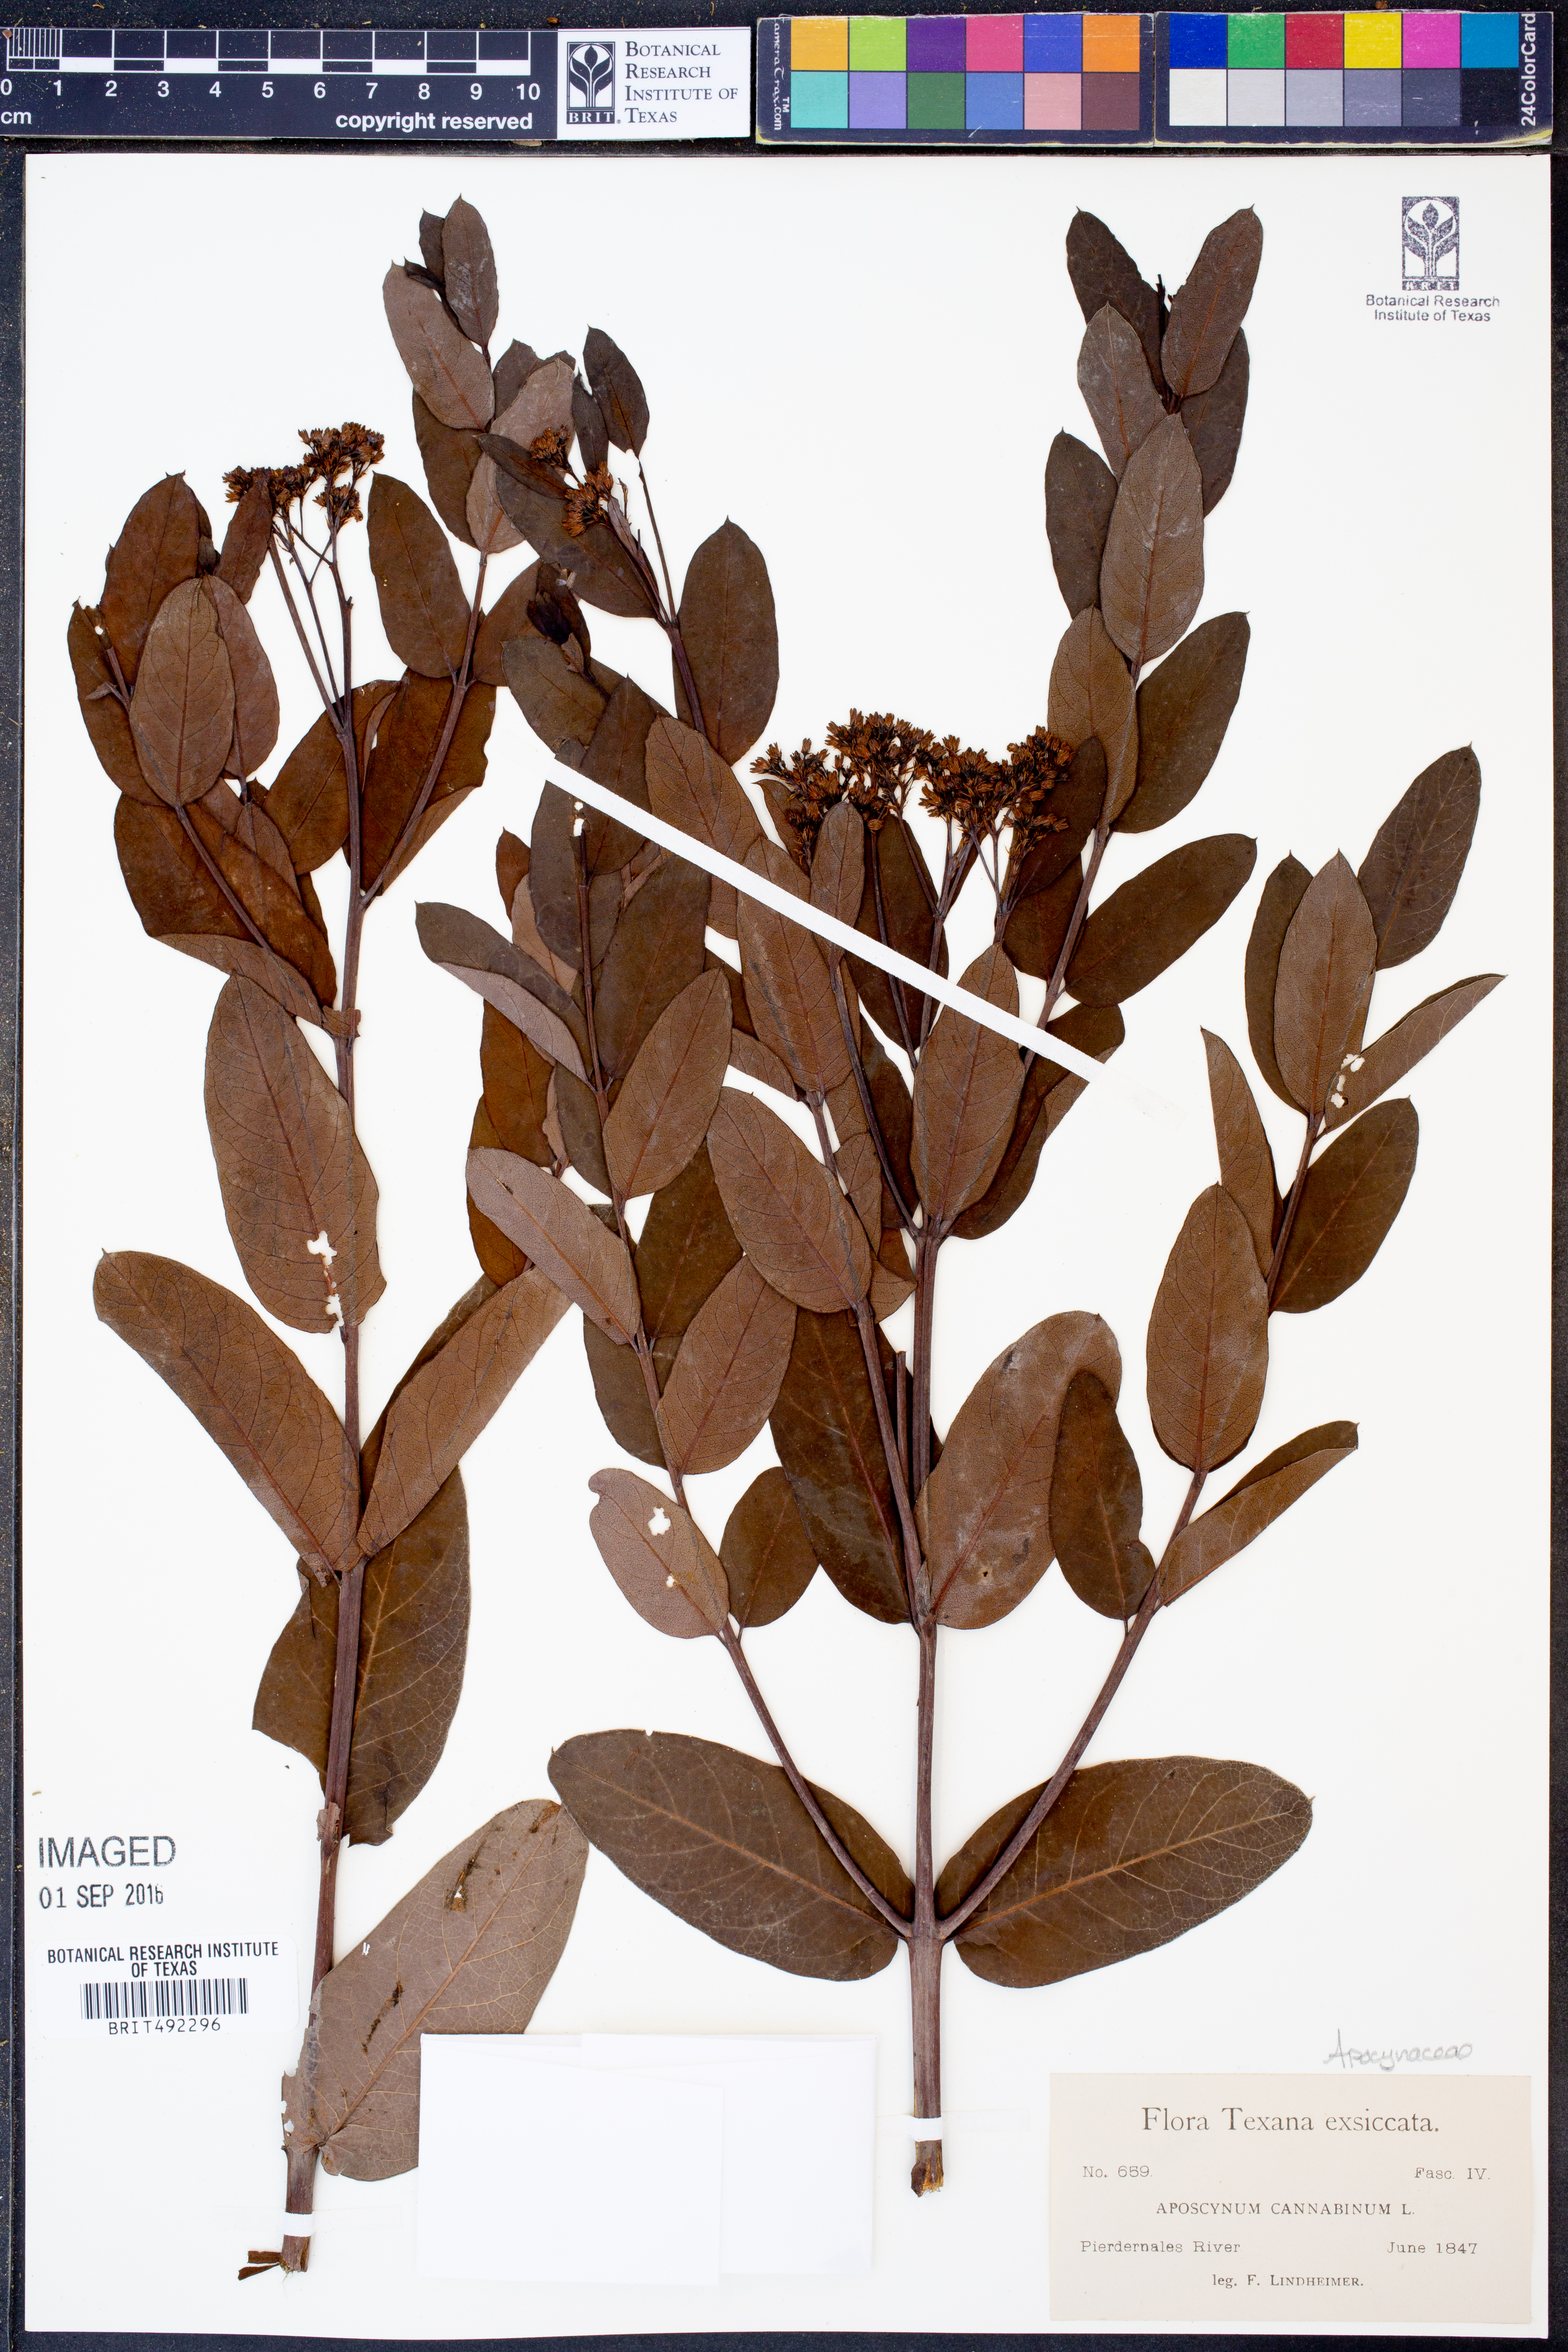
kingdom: Plantae
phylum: Tracheophyta
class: Magnoliopsida
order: Gentianales
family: Apocynaceae
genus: Apocynum
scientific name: Apocynum cannabinum
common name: Hemp dogbane
